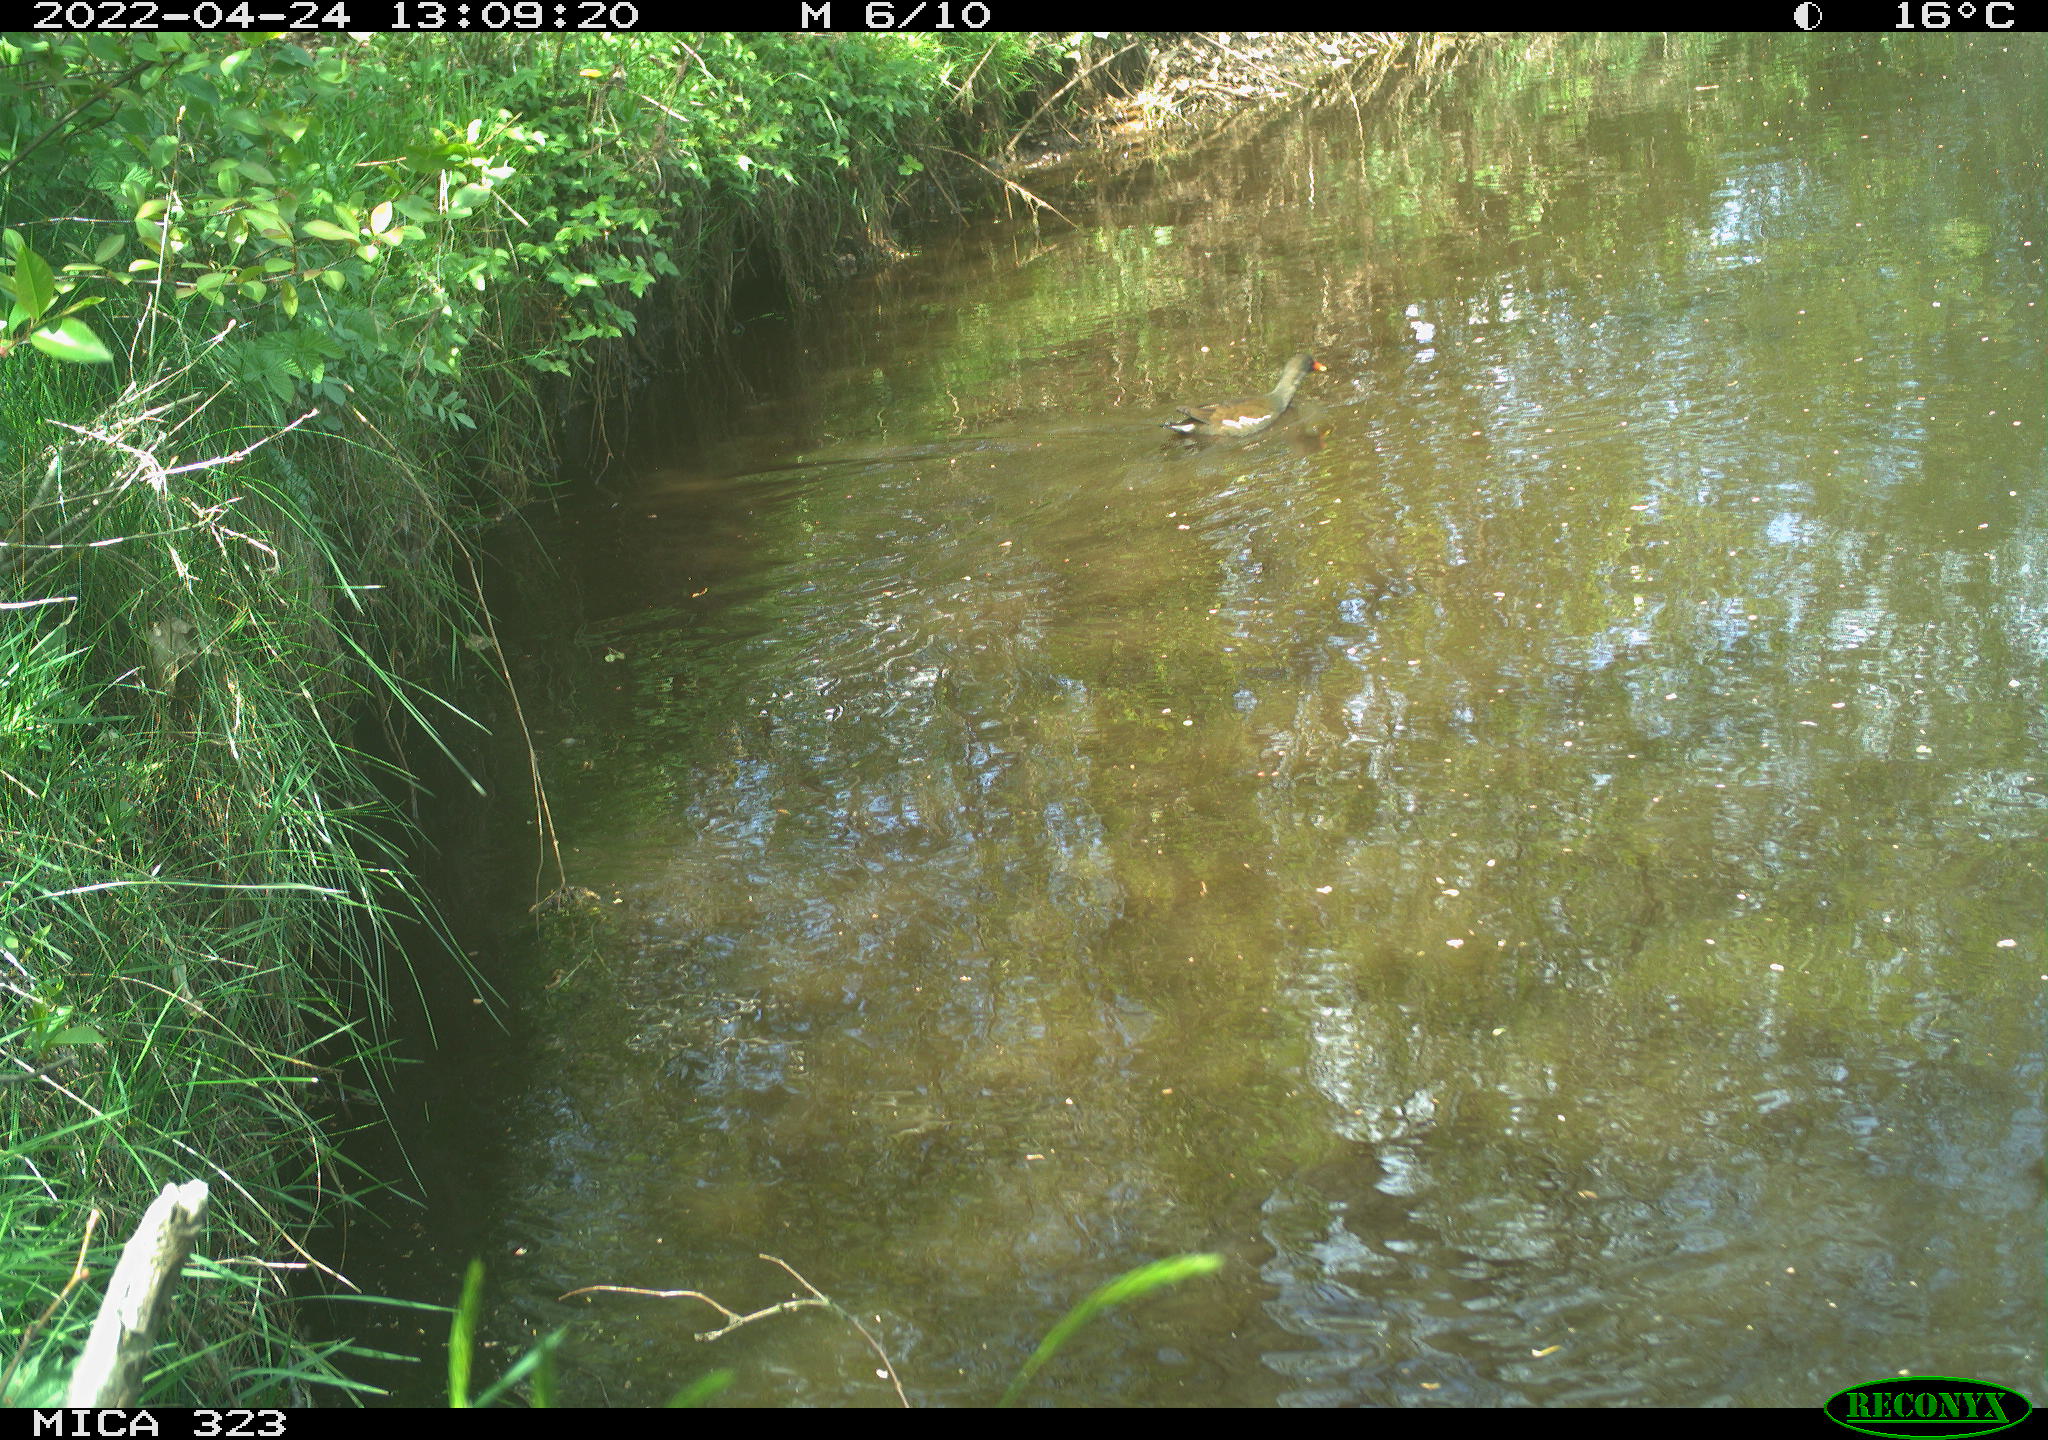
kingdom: Animalia
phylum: Chordata
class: Aves
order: Gruiformes
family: Rallidae
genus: Gallinula
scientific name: Gallinula chloropus
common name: Common moorhen
